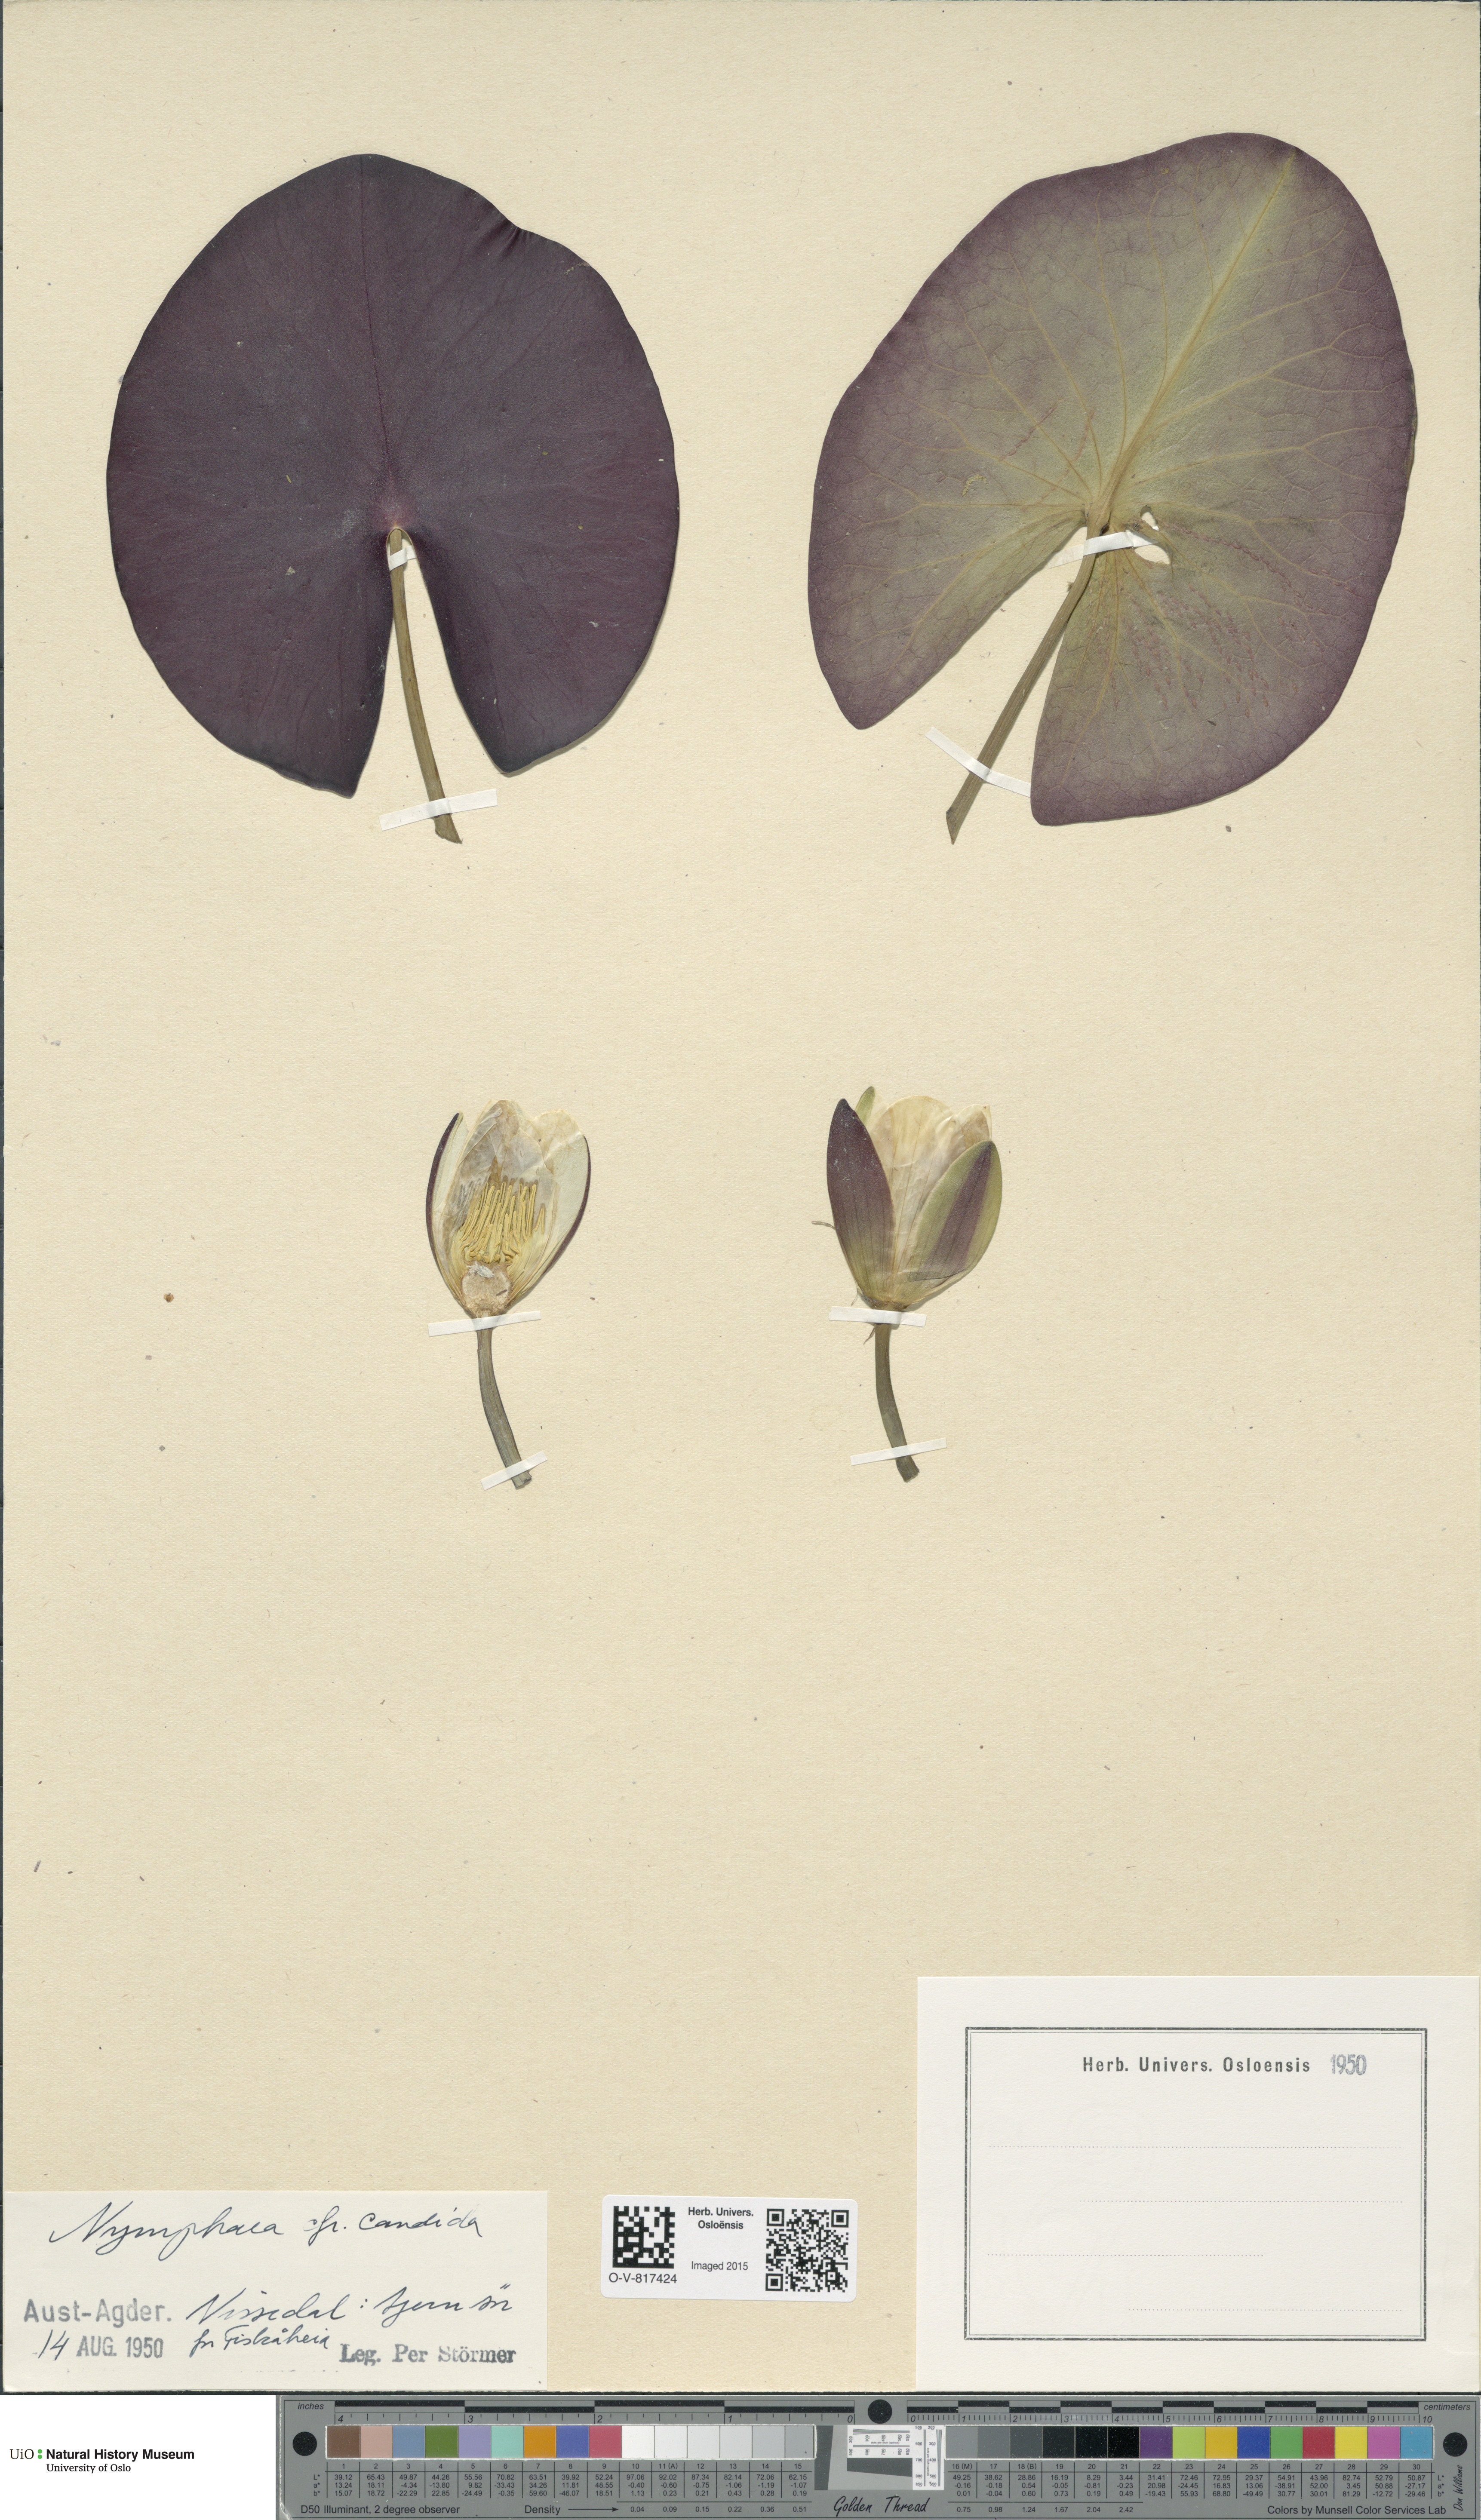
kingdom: Plantae
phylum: Tracheophyta
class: Magnoliopsida
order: Nymphaeales
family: Nymphaeaceae
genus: Nymphaea
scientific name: Nymphaea candida
